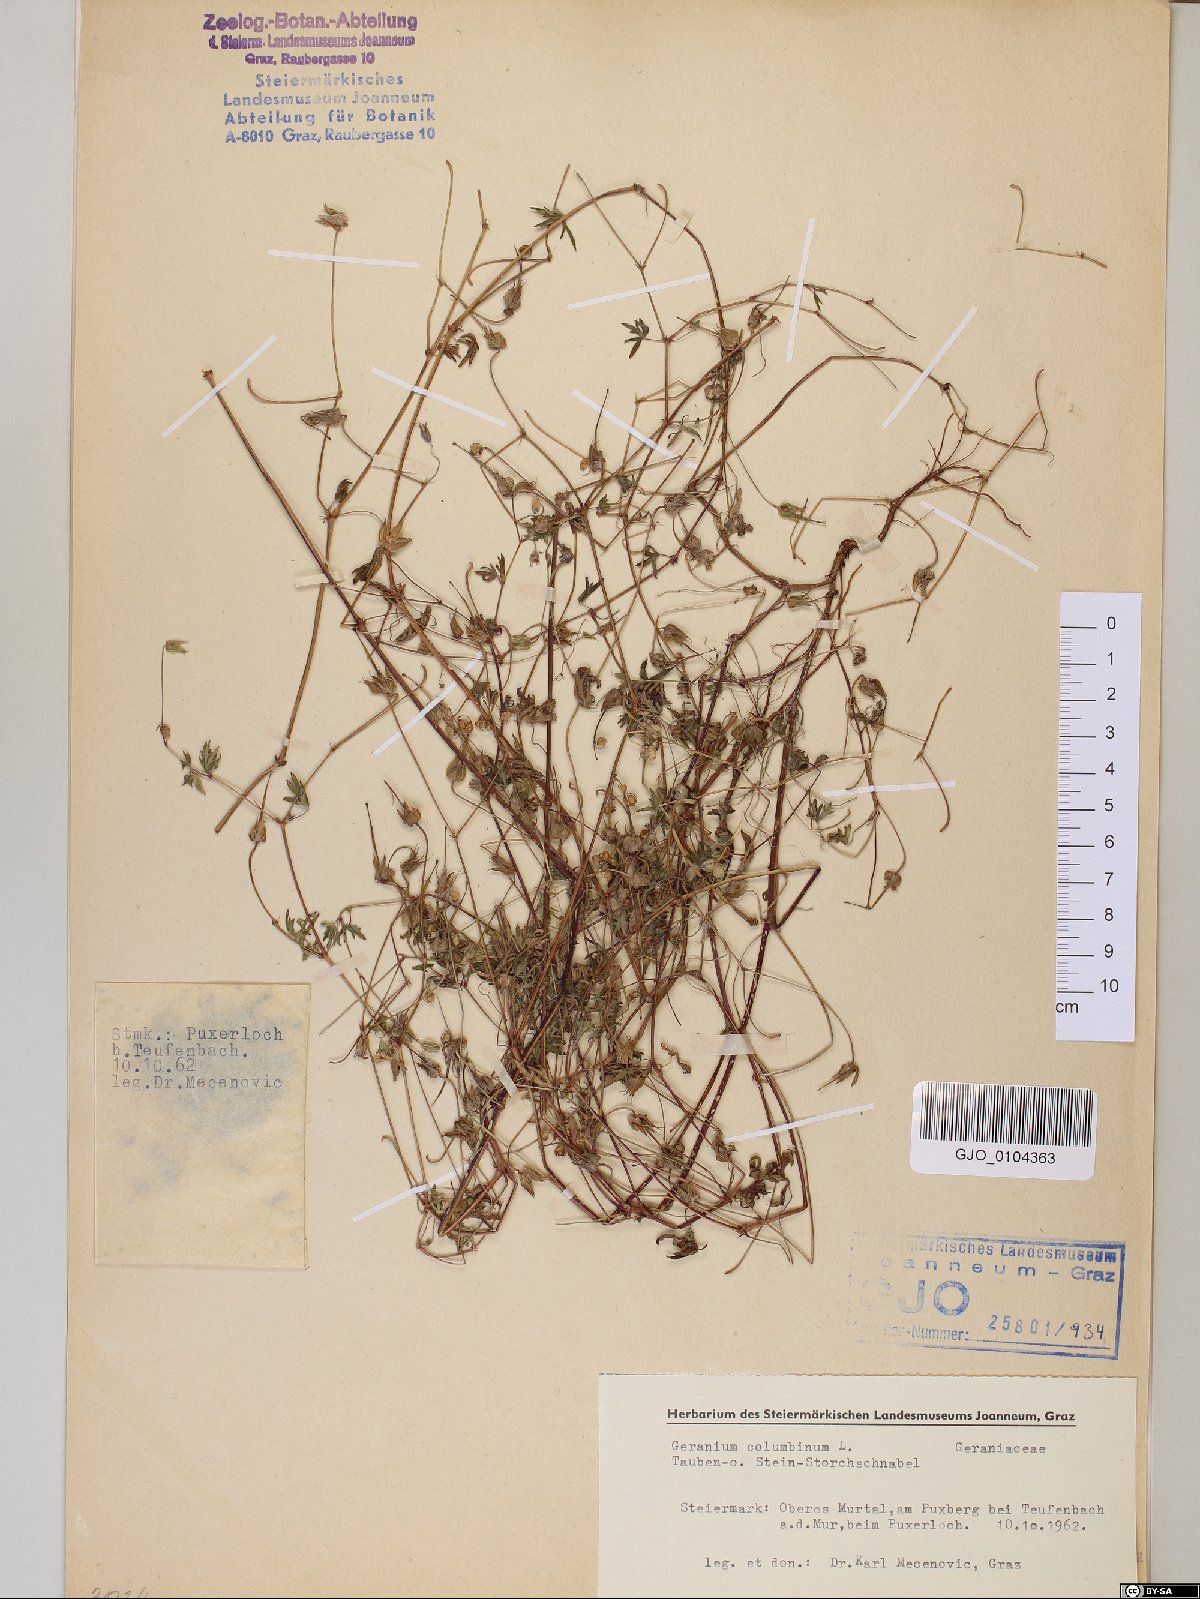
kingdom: Plantae
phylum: Tracheophyta
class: Magnoliopsida
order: Geraniales
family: Geraniaceae
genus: Geranium
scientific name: Geranium columbinum
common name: Long-stalked crane's-bill
